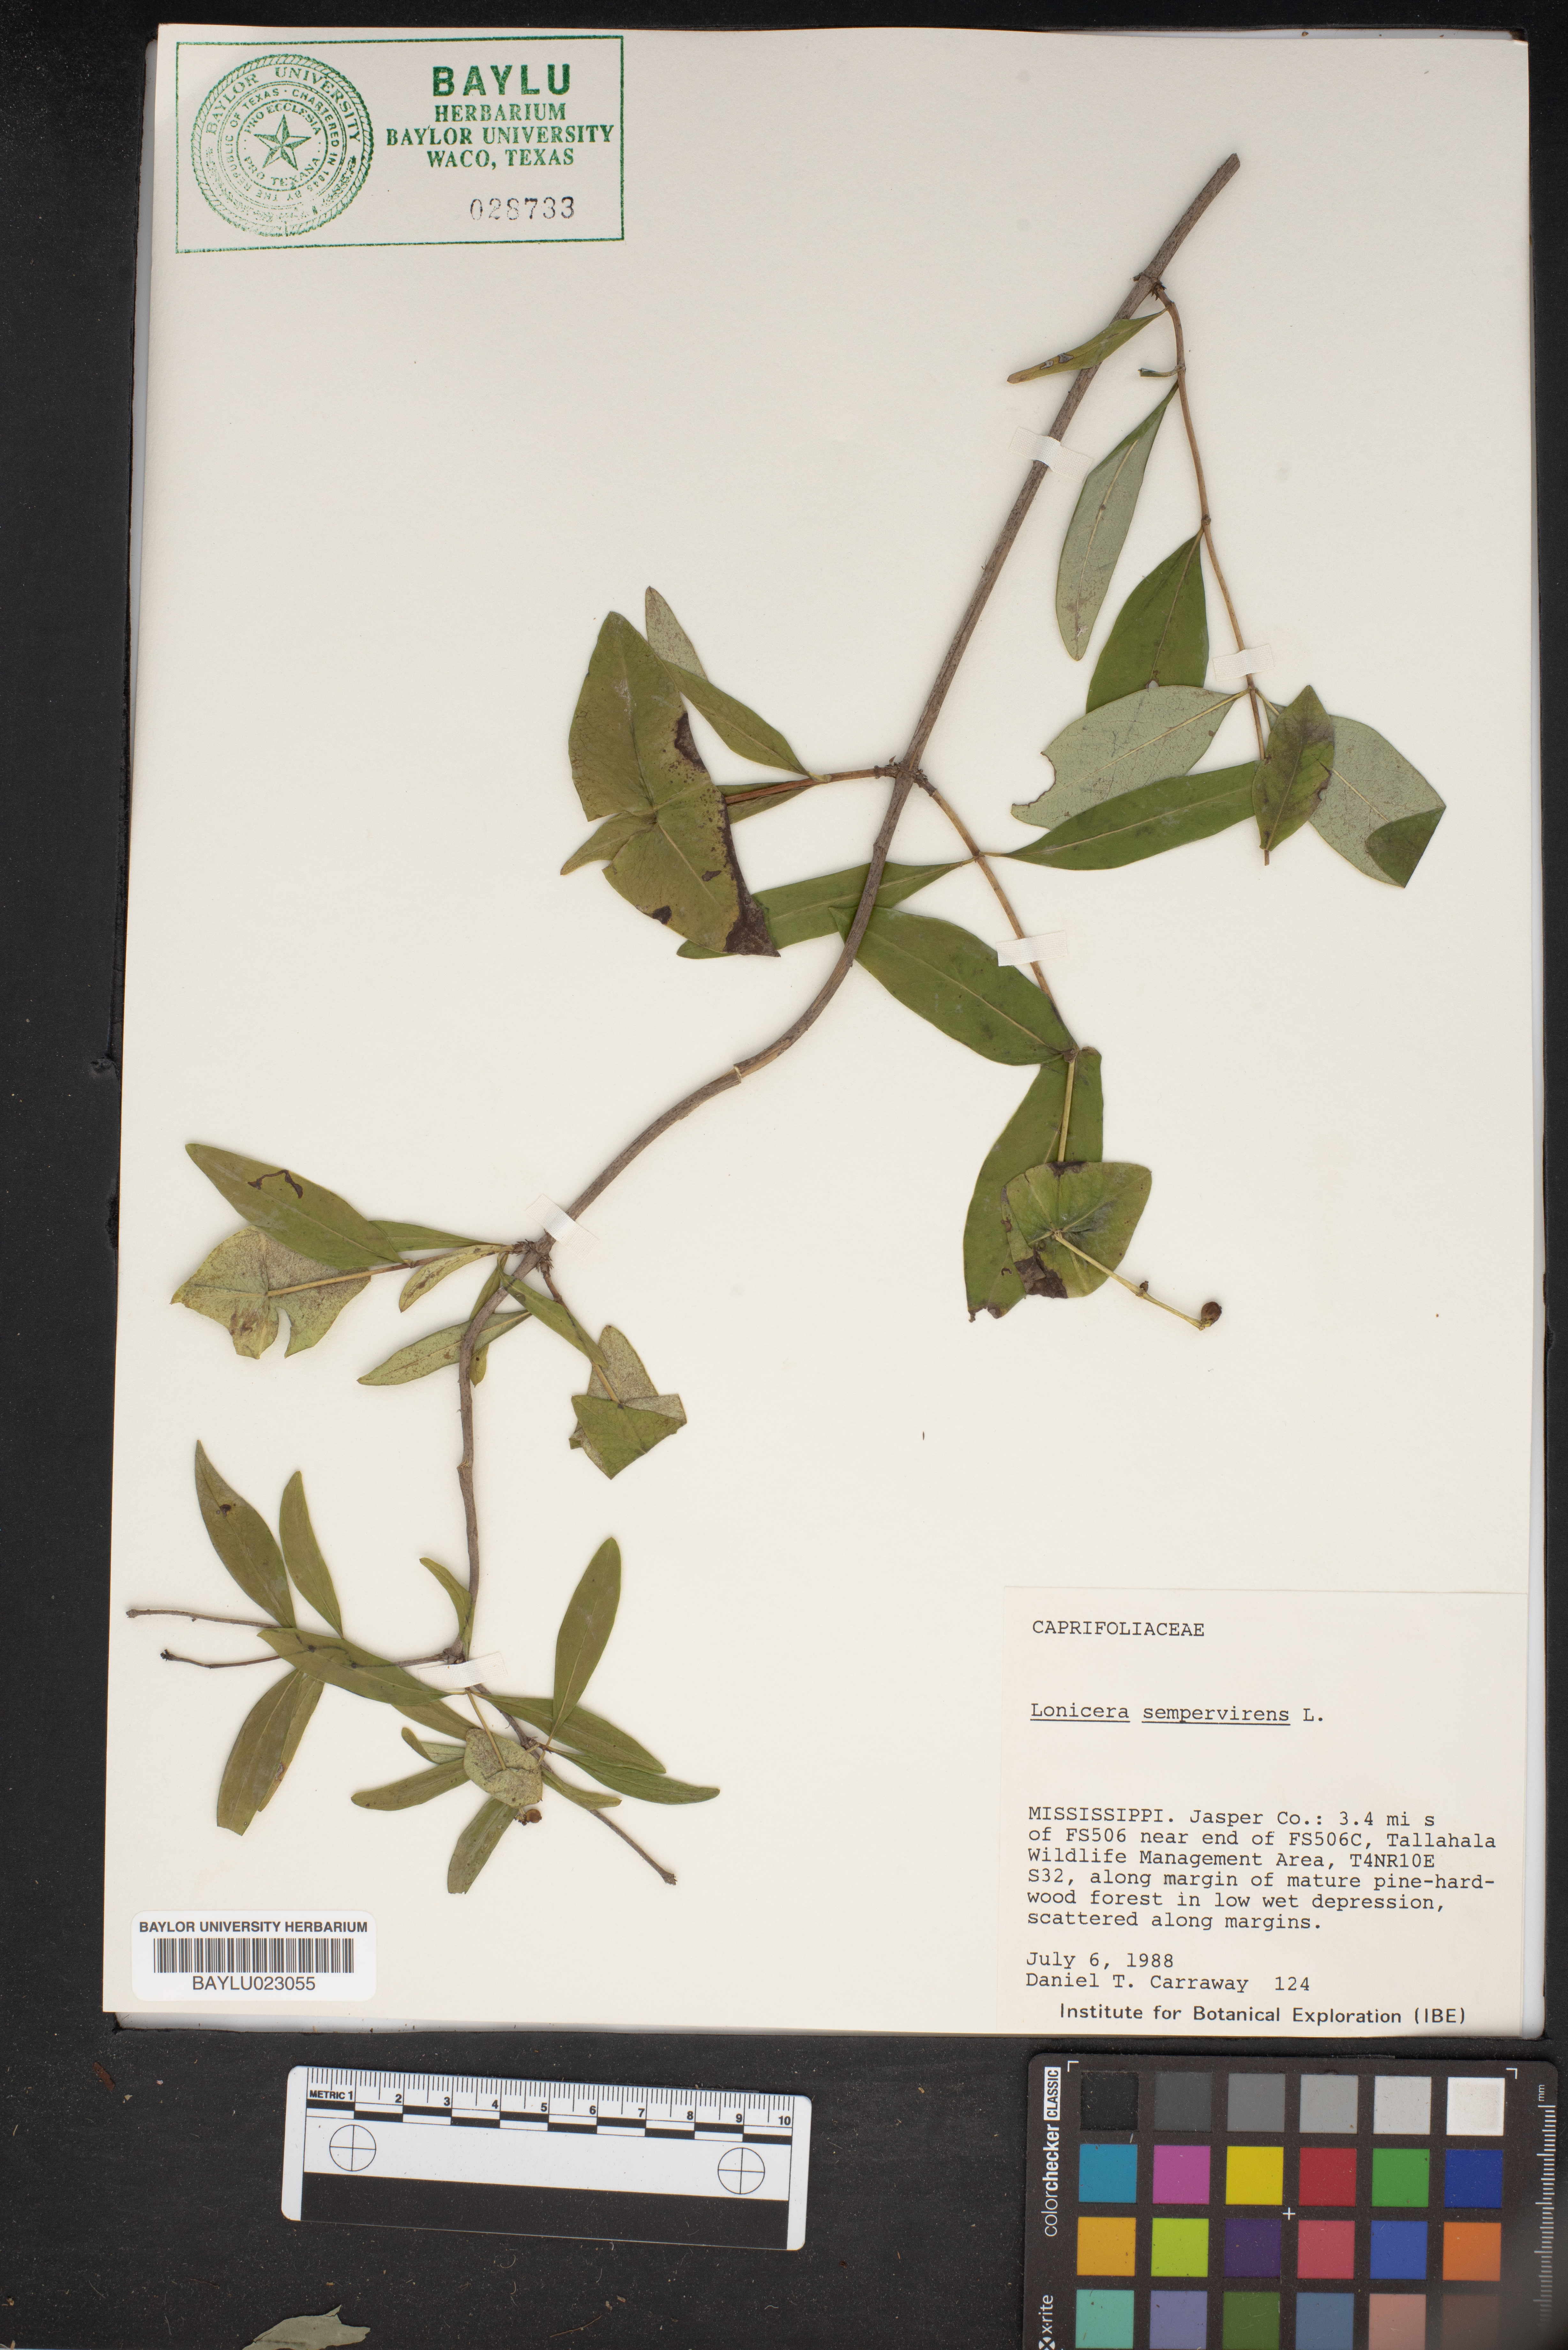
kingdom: Plantae
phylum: Tracheophyta
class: Magnoliopsida
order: Dipsacales
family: Caprifoliaceae
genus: Lonicera
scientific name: Lonicera sempervirens
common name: Coral honeysuckle
